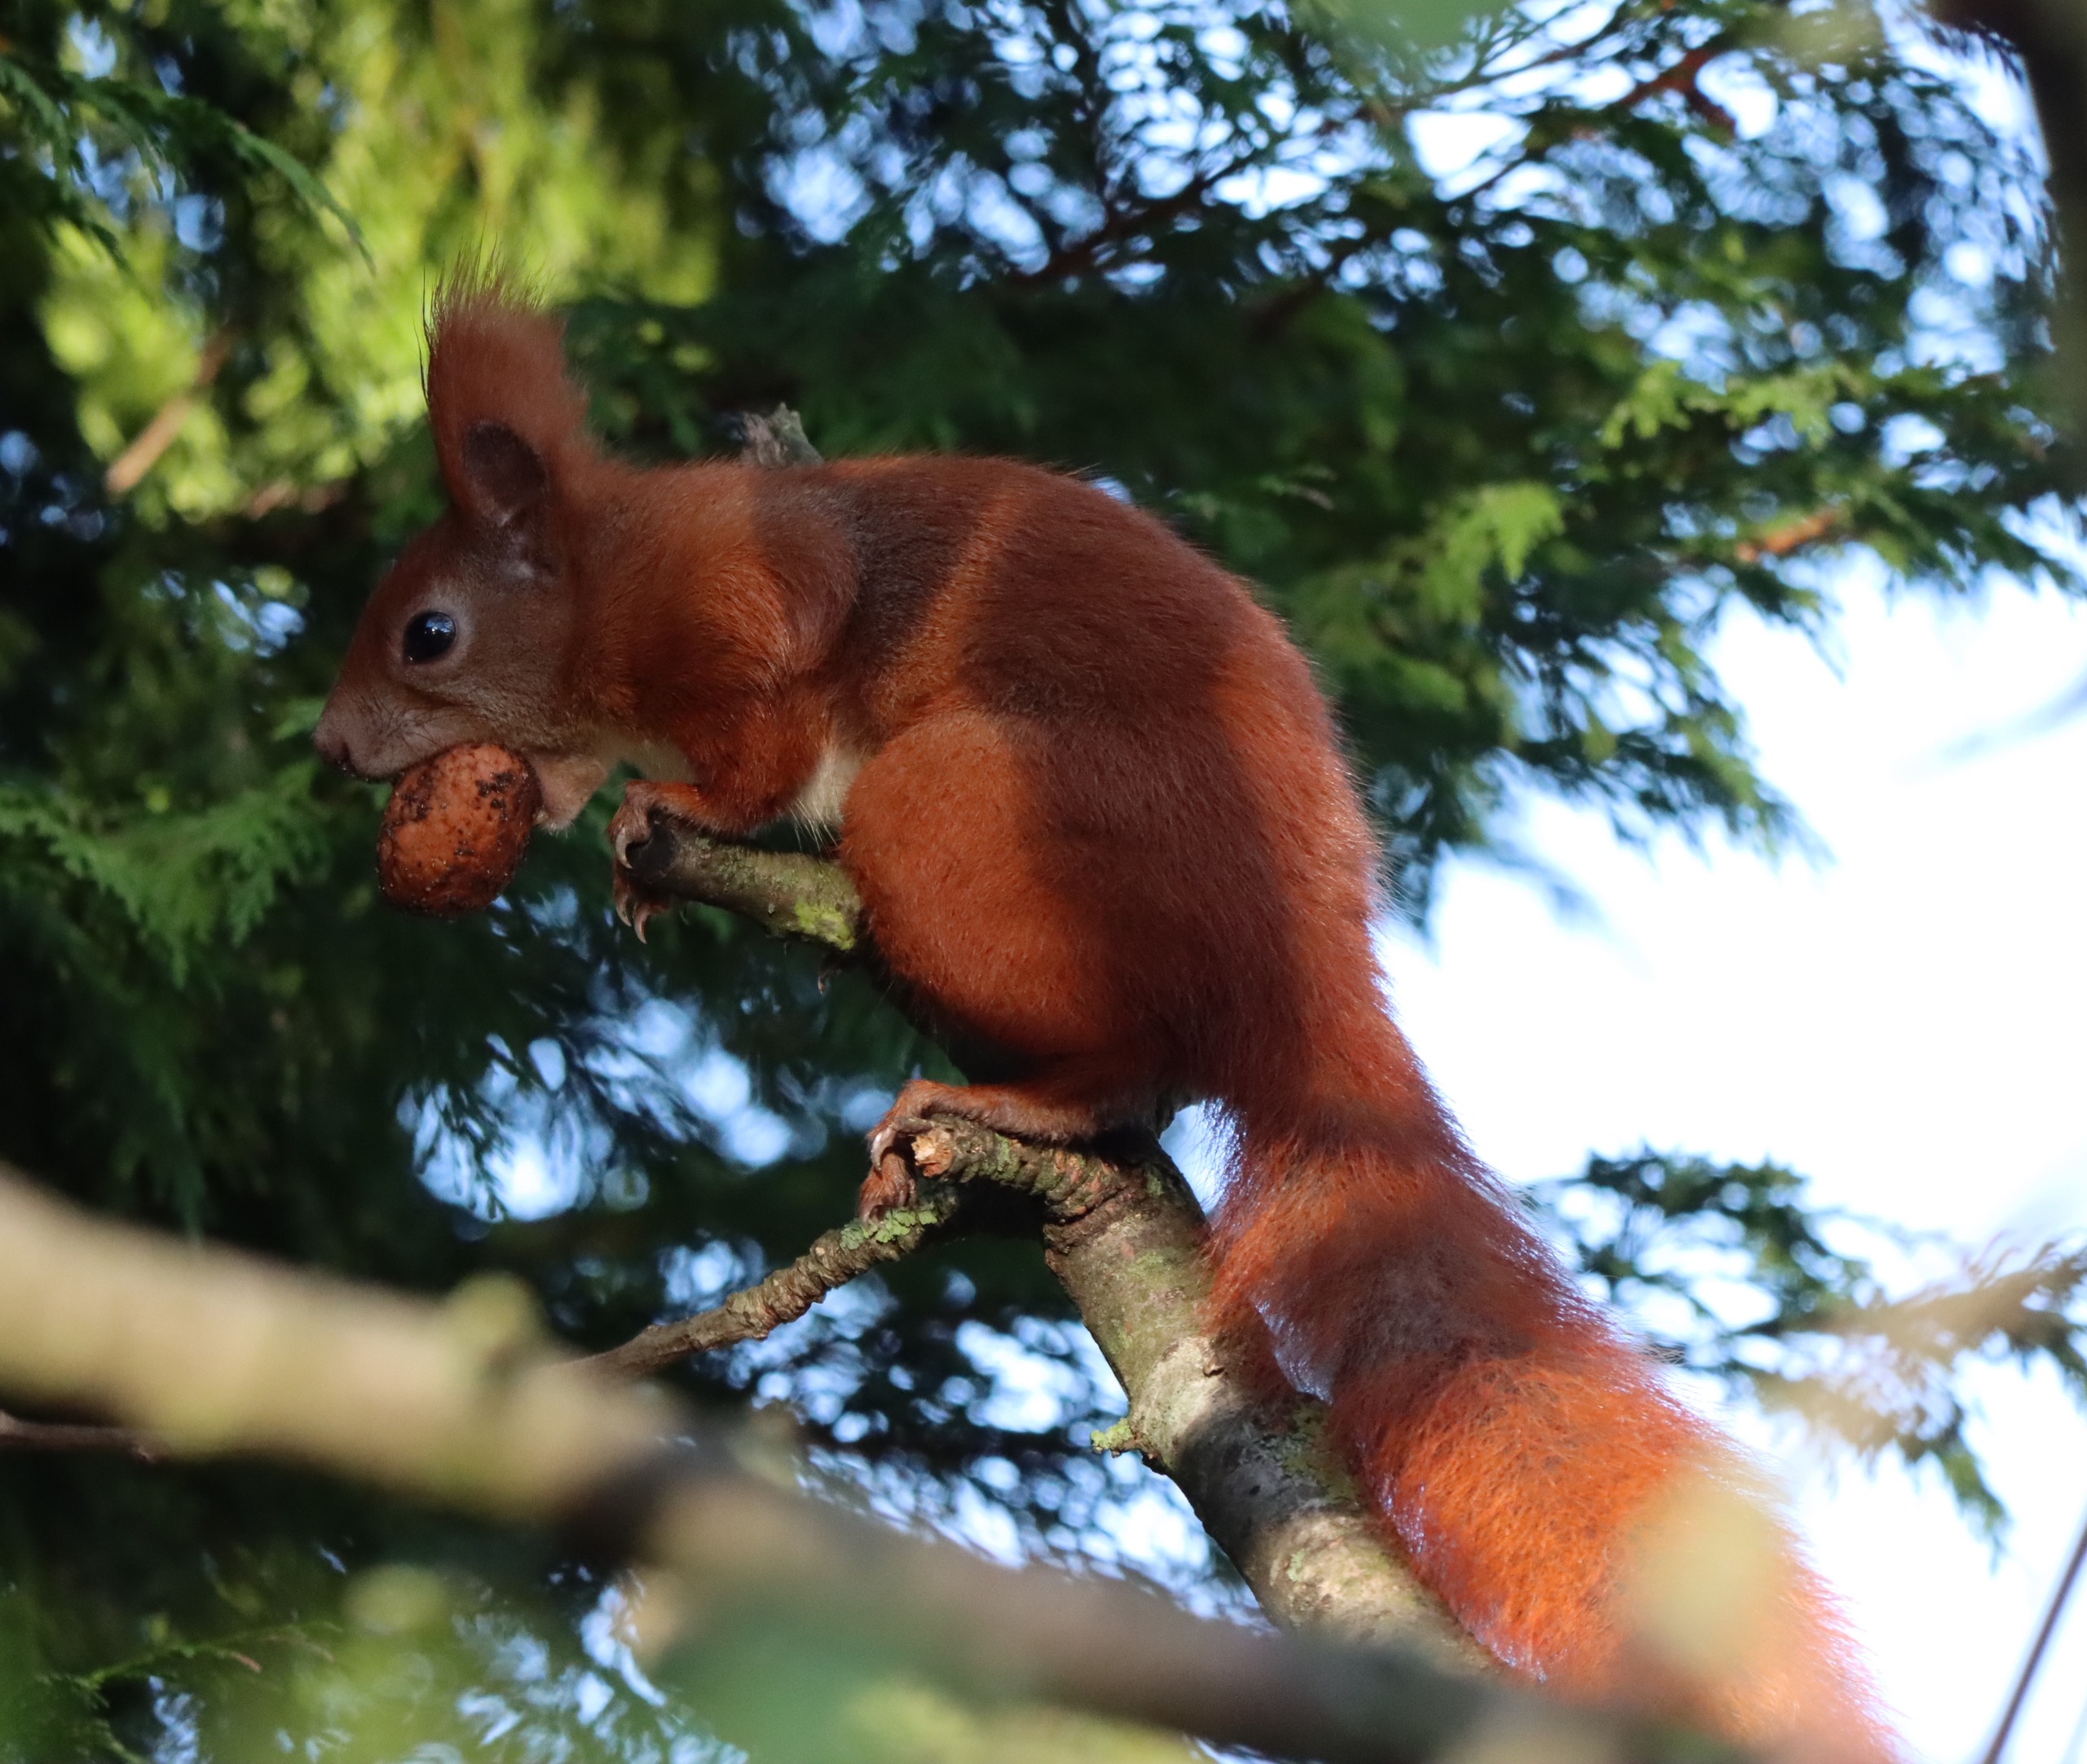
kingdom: Animalia
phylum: Chordata
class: Mammalia
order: Rodentia
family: Sciuridae
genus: Sciurus
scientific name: Sciurus vulgaris
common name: Egern
